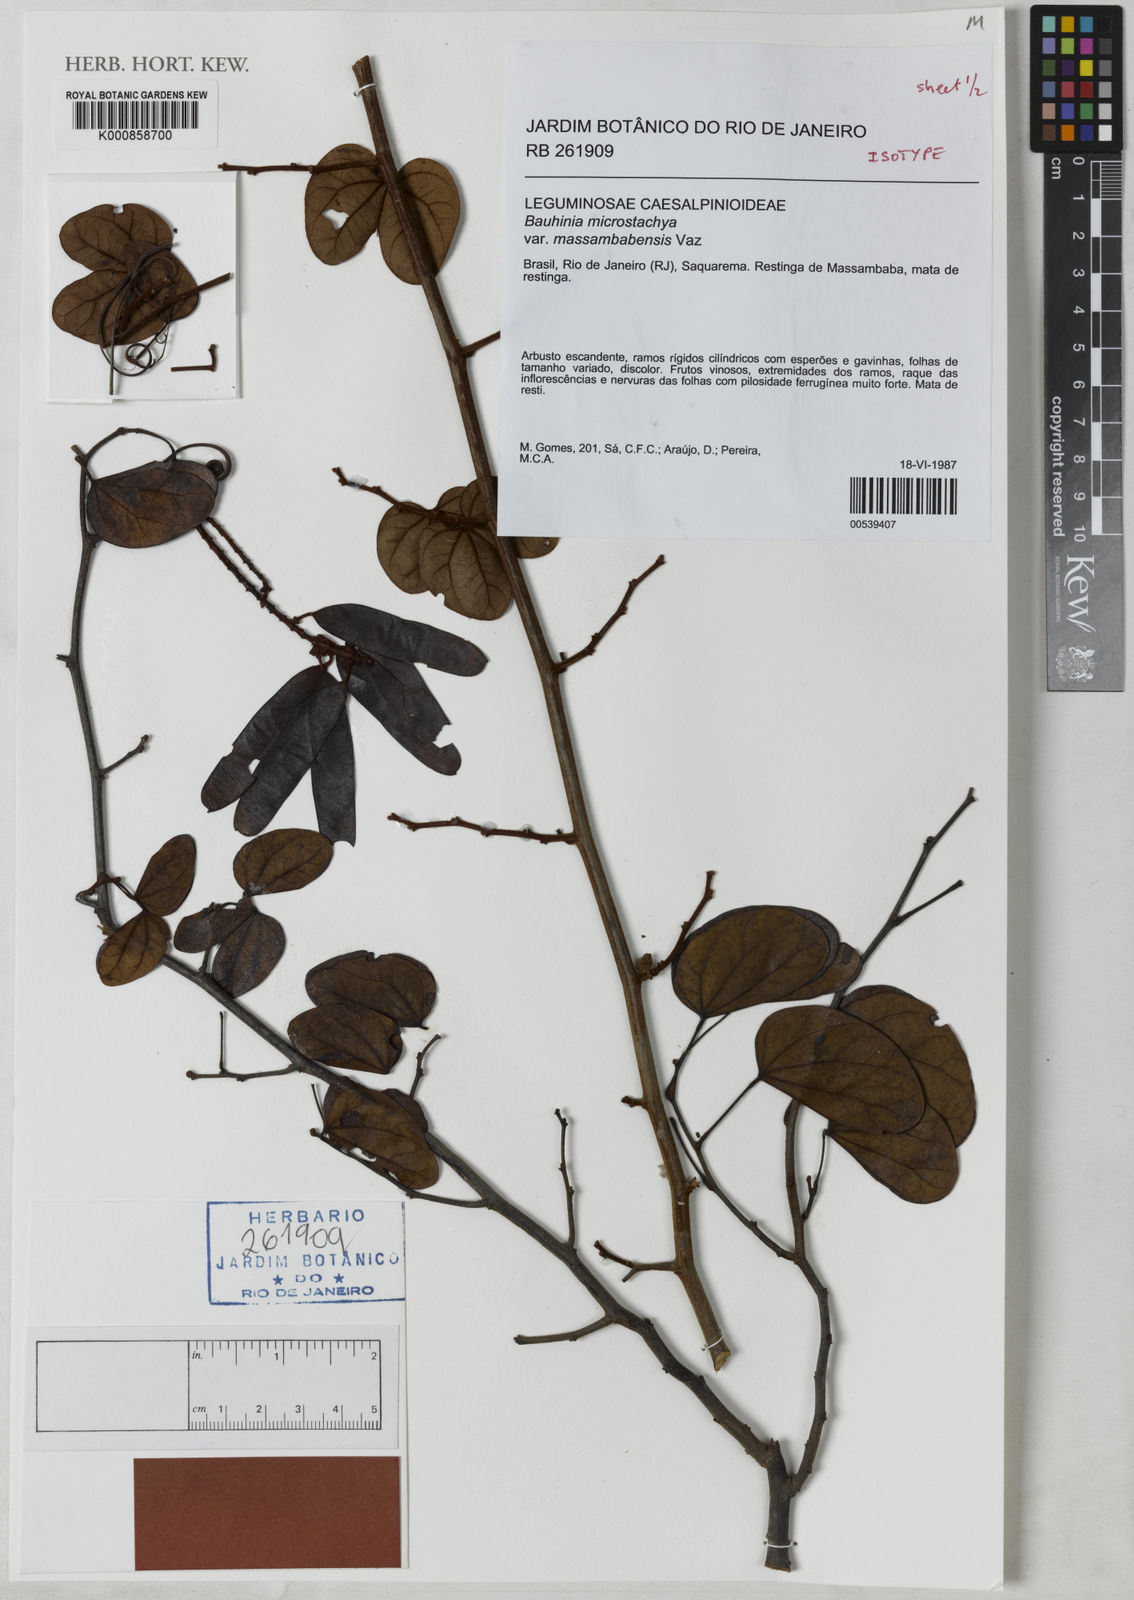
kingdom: Plantae
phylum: Tracheophyta
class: Magnoliopsida
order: Fabales
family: Fabaceae
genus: Schnella
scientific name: Schnella microstachya
